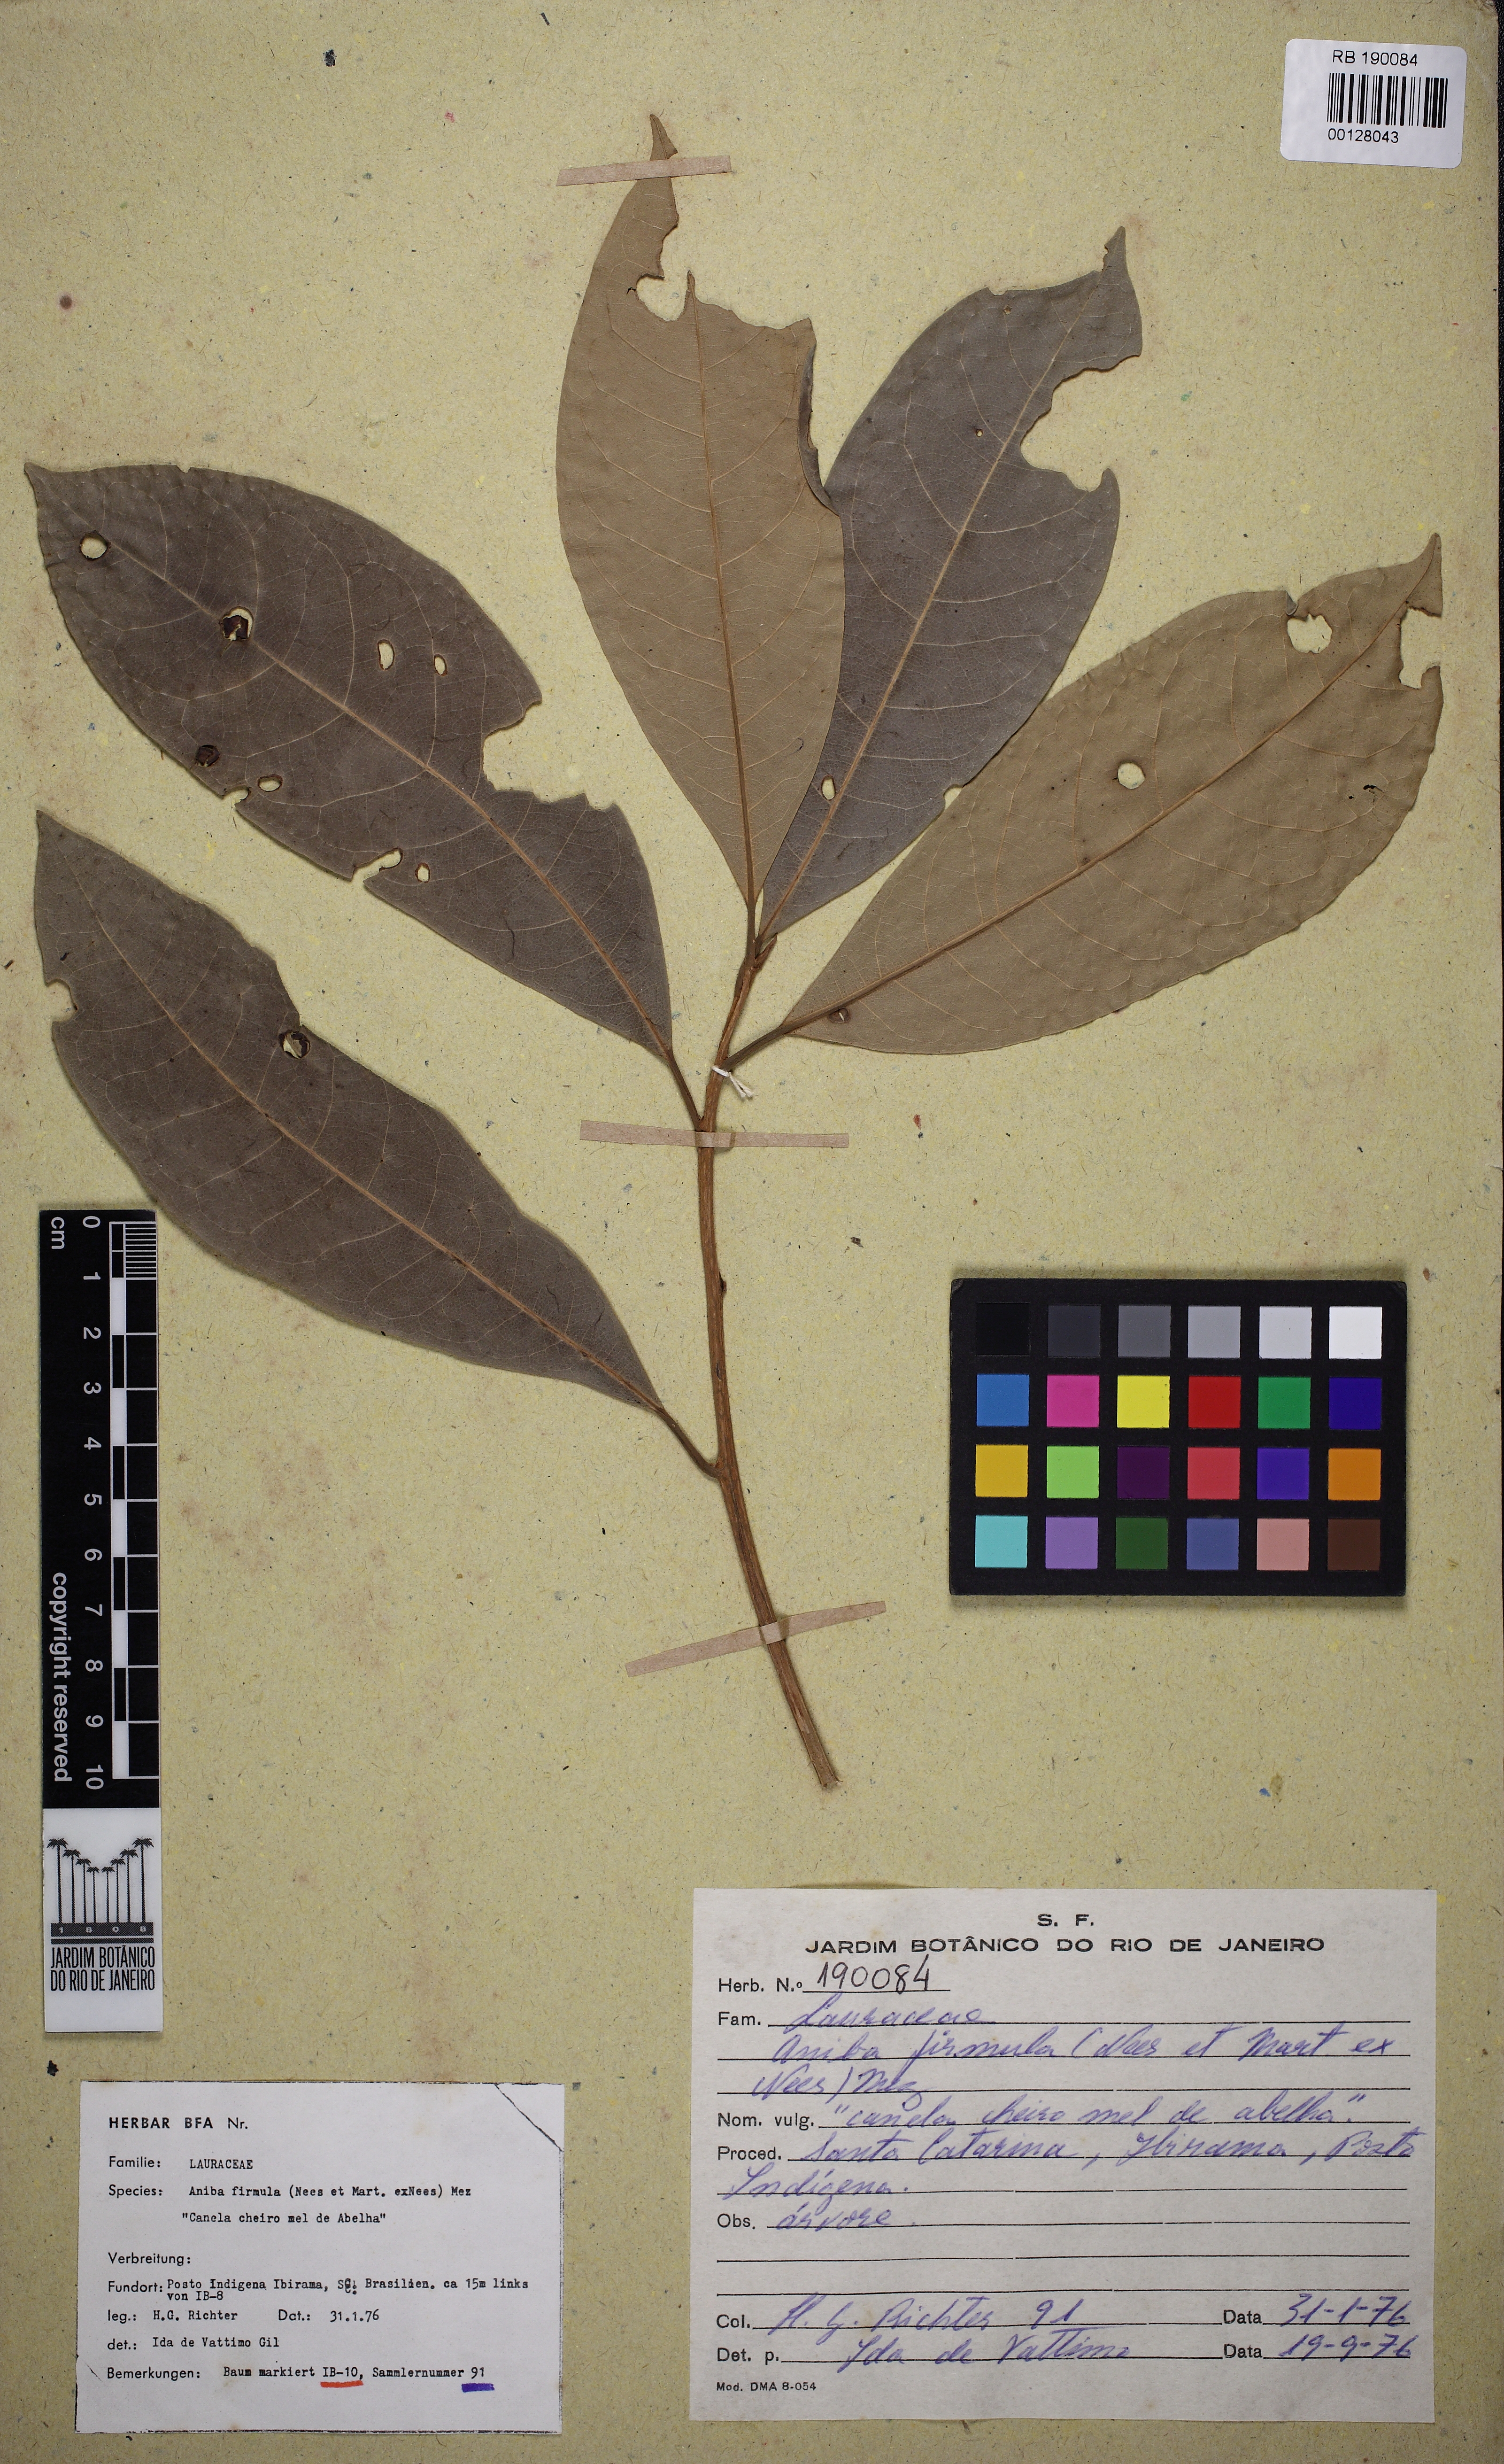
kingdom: Plantae
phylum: Tracheophyta
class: Magnoliopsida
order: Laurales
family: Lauraceae
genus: Aniba
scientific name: Aniba firmula
